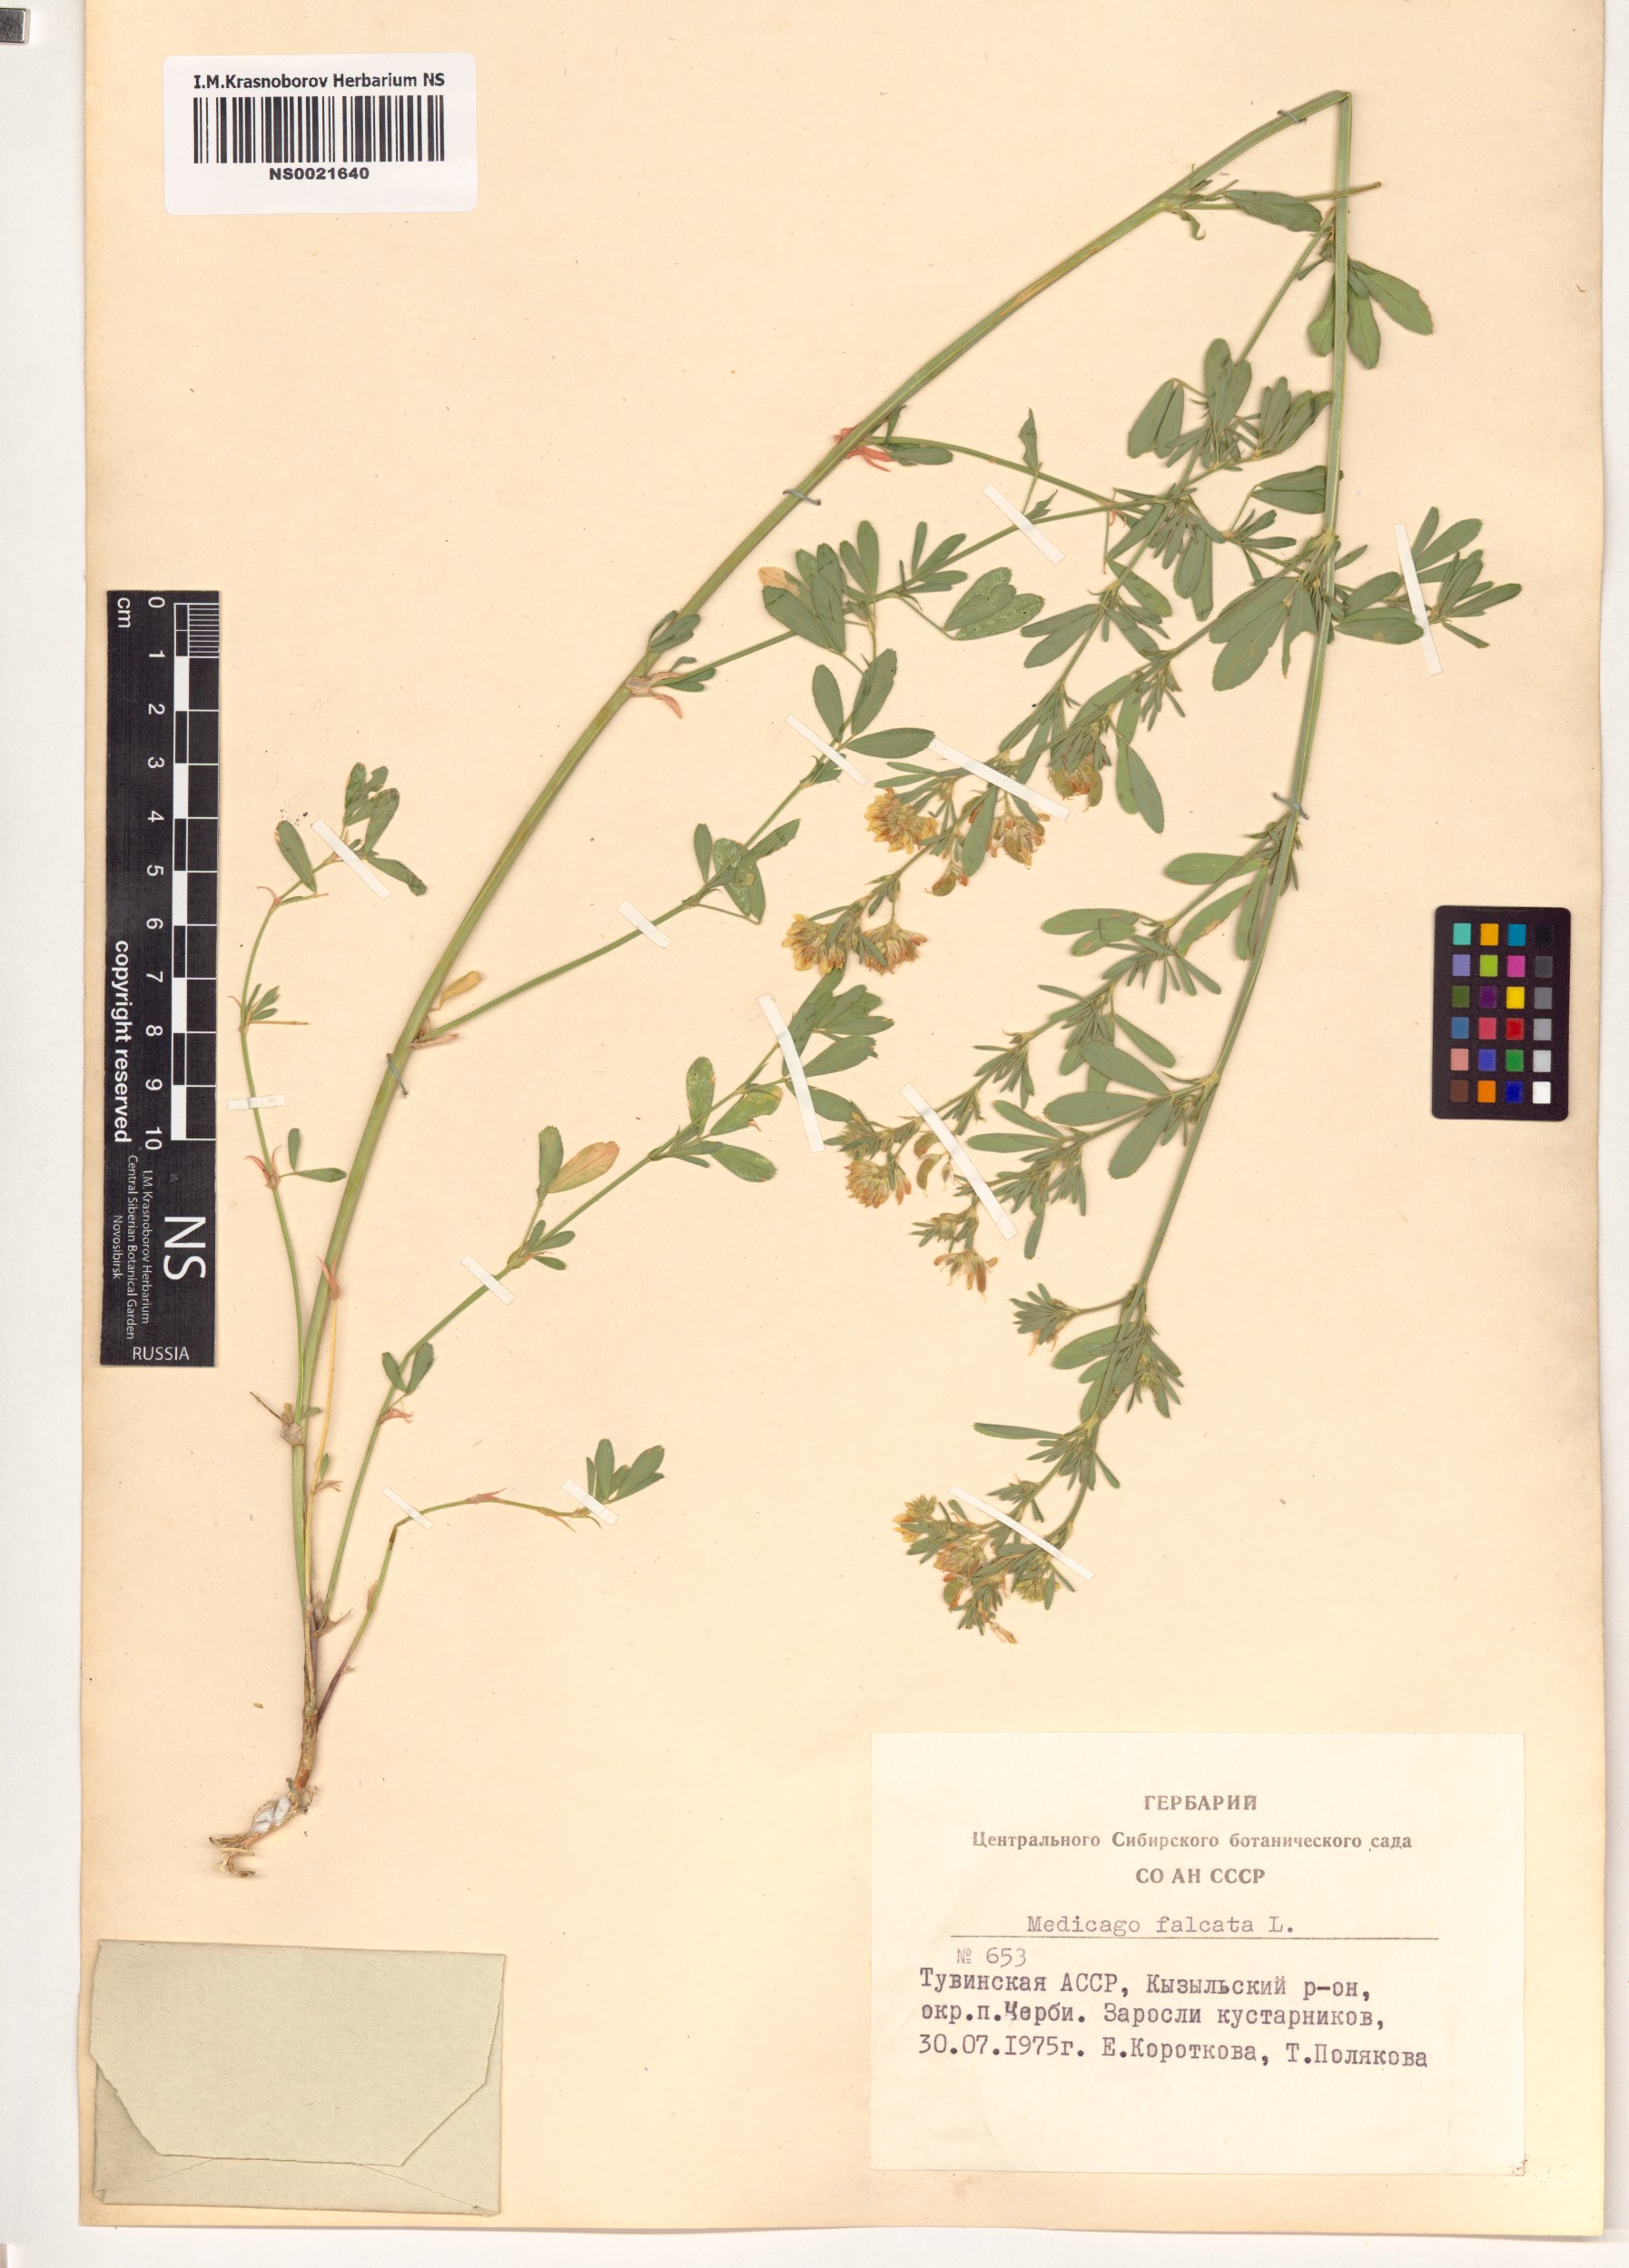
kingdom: Plantae
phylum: Tracheophyta
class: Magnoliopsida
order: Fabales
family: Fabaceae
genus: Medicago
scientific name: Medicago falcata
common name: Sickle medick
